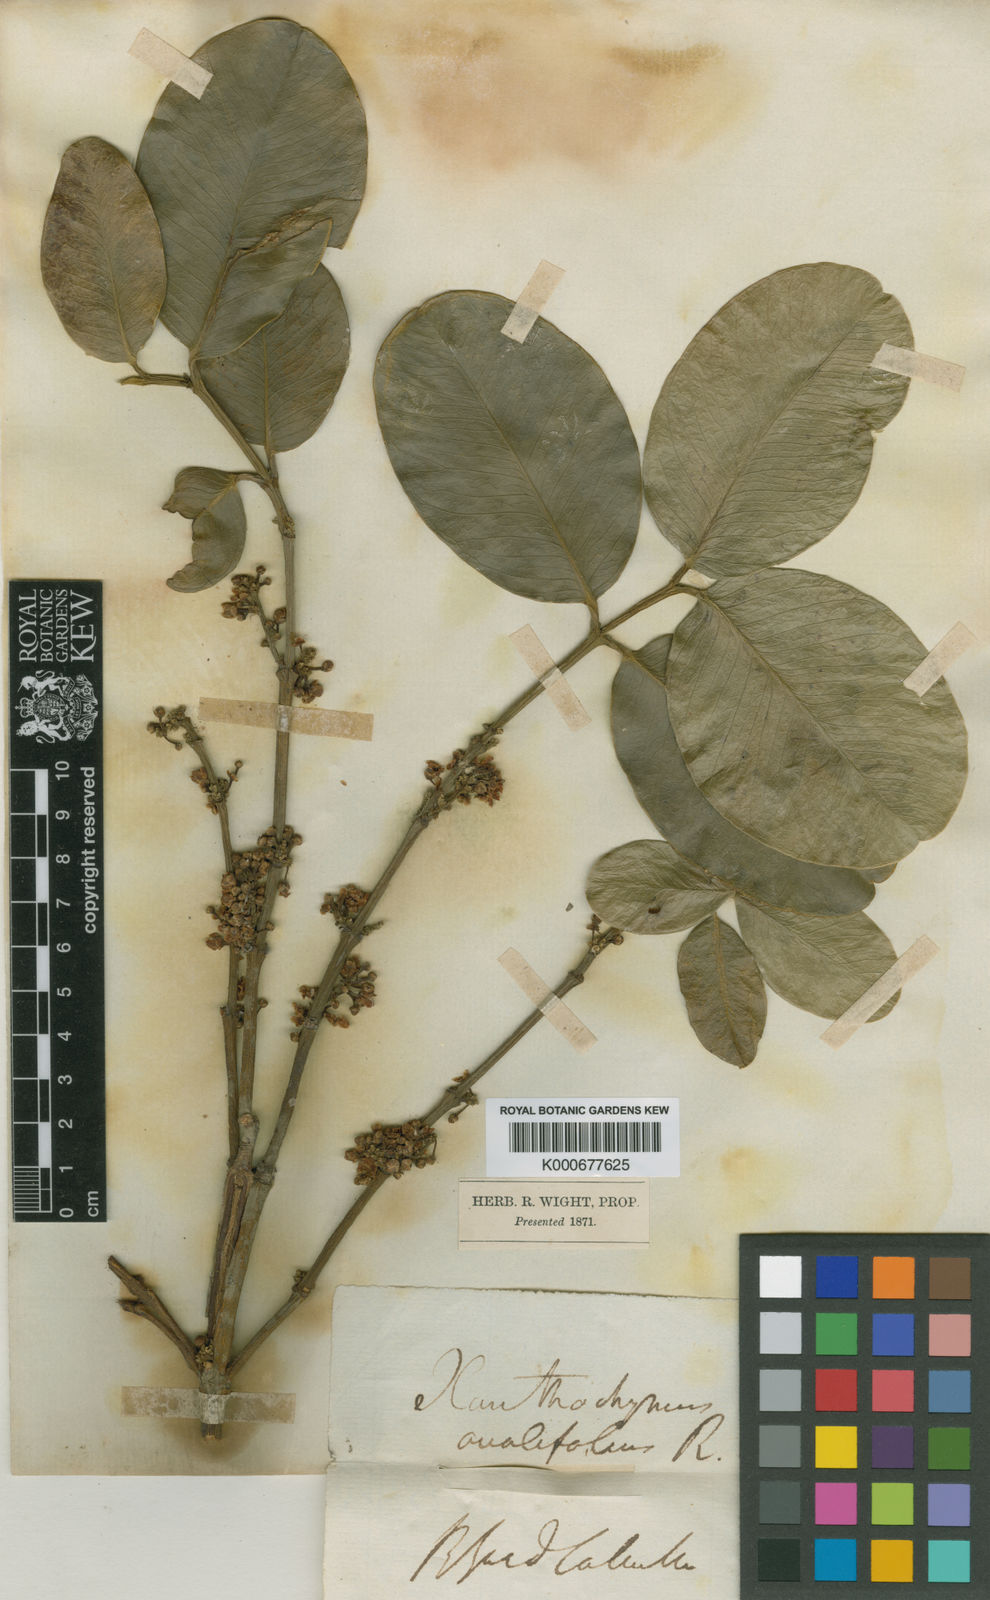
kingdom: Plantae
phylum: Tracheophyta
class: Magnoliopsida
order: Malpighiales
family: Clusiaceae
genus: Garcinia
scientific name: Garcinia ovalifolia
